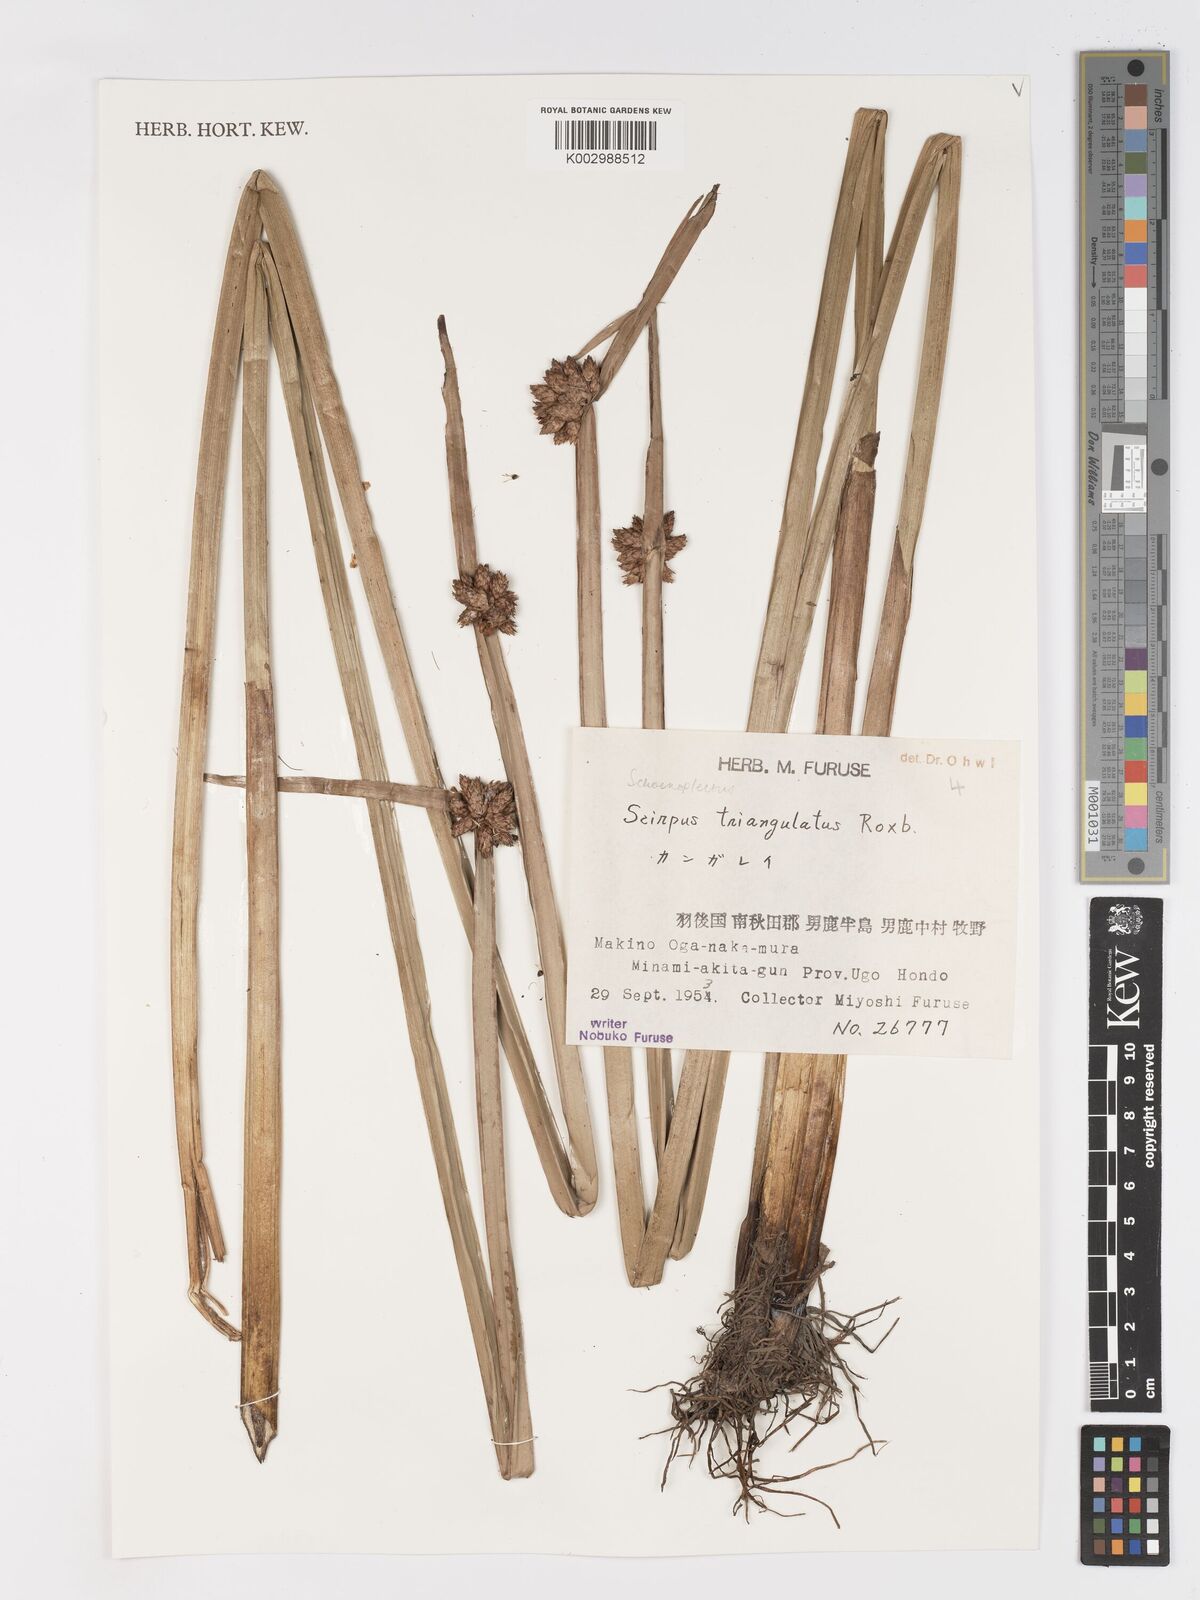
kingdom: Plantae
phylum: Tracheophyta
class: Liliopsida
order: Poales
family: Cyperaceae
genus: Schoenoplectiella
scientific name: Schoenoplectiella triangulata
